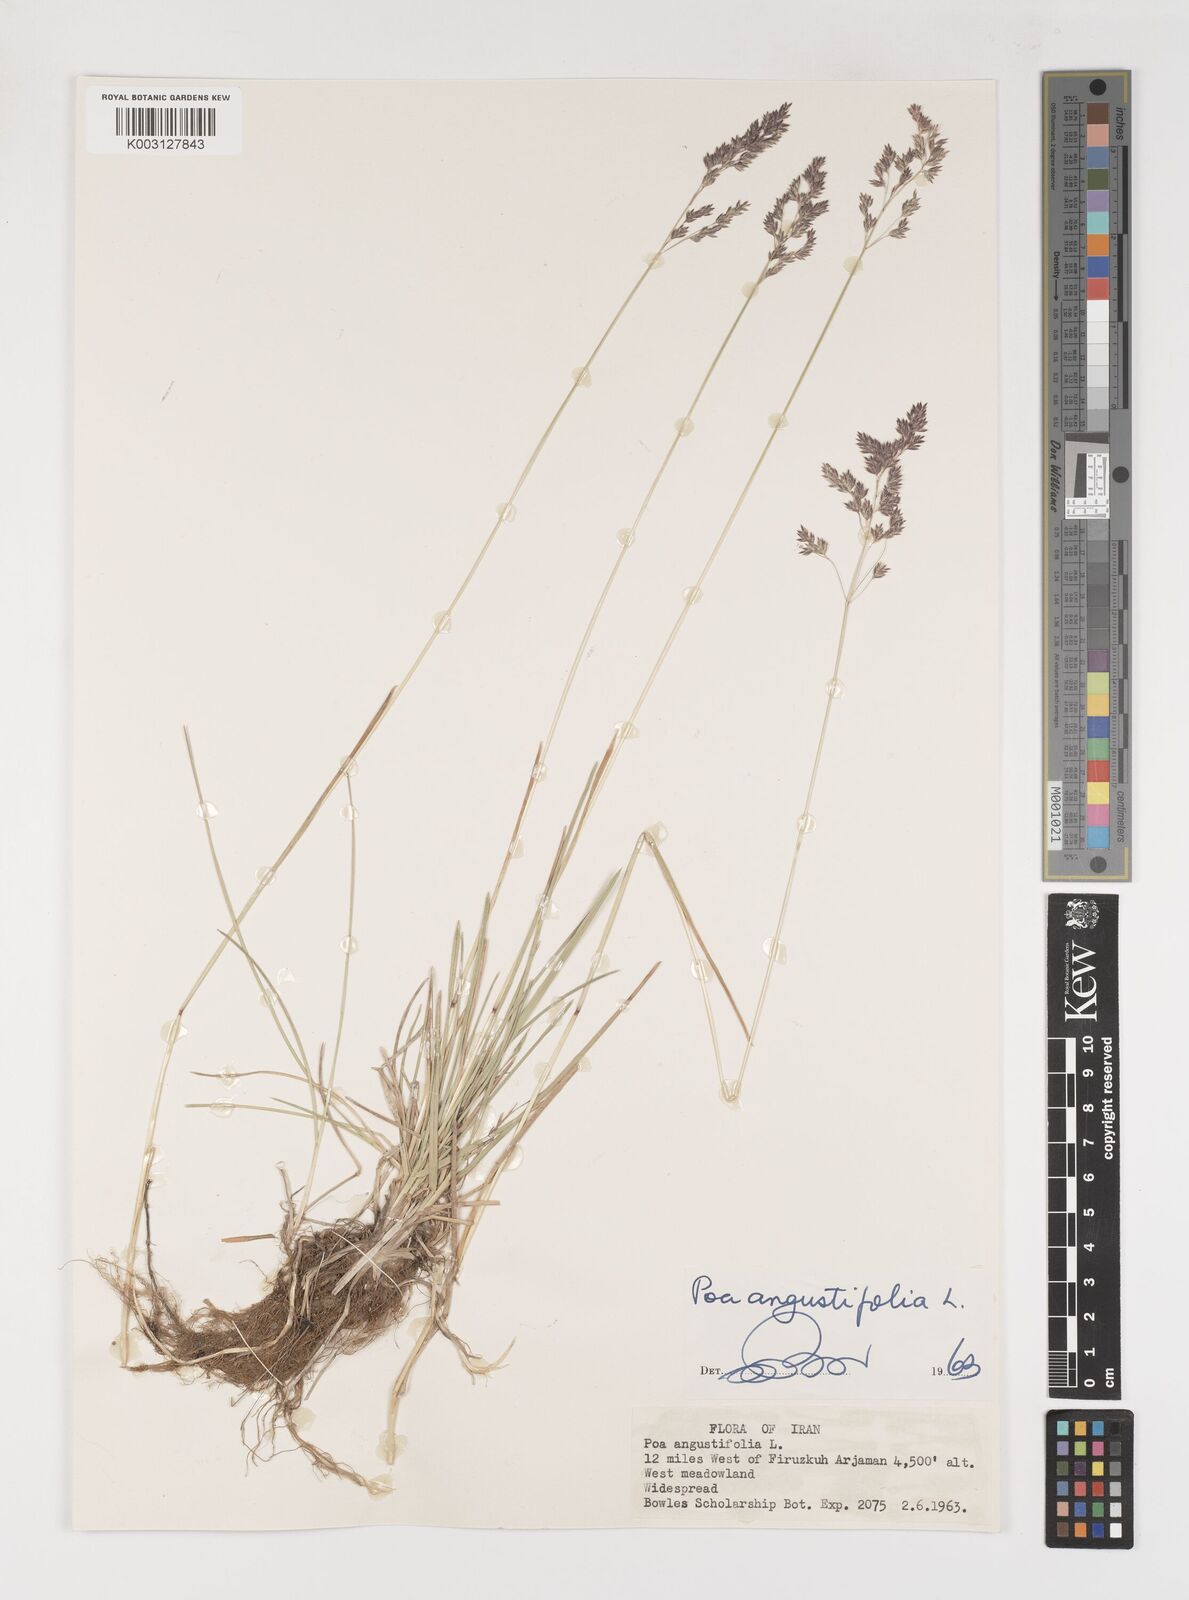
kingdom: Plantae
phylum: Tracheophyta
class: Liliopsida
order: Poales
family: Poaceae
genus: Poa
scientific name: Poa angustifolia
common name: Narrow-leaved meadow-grass
